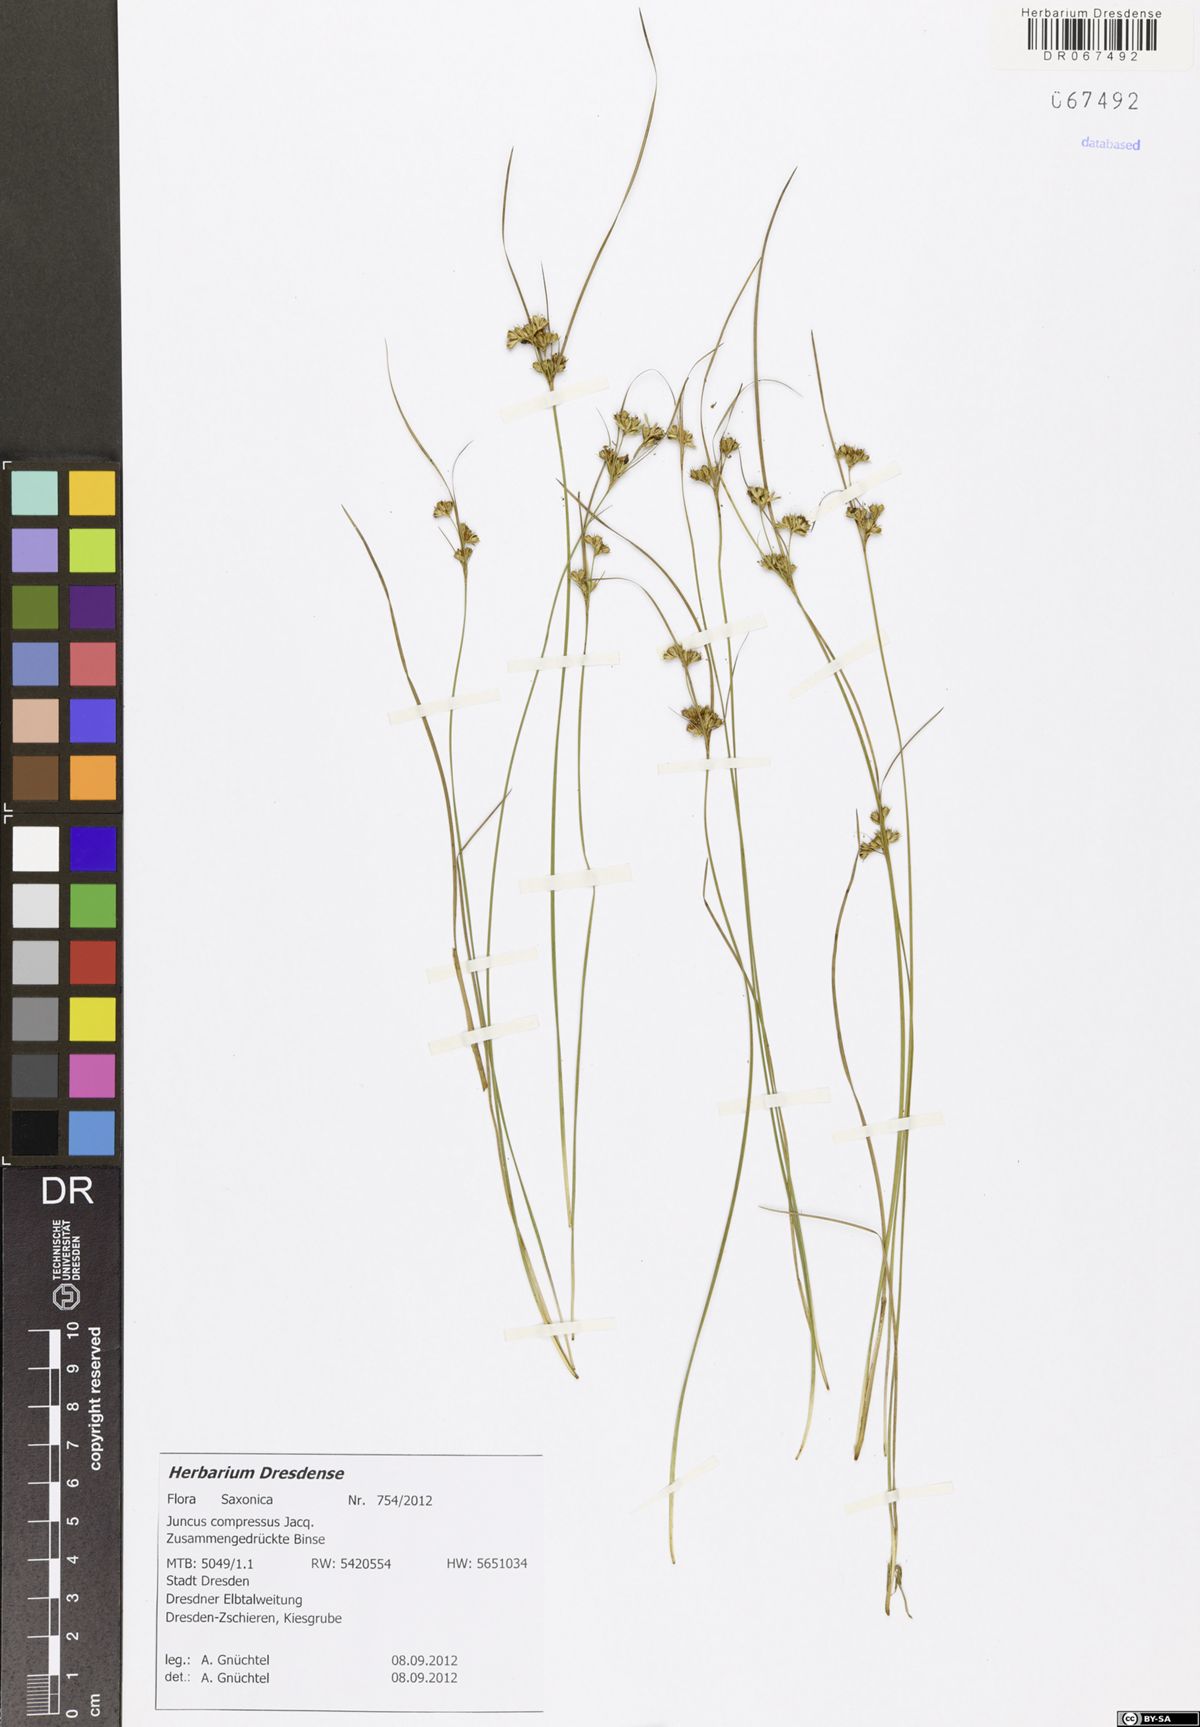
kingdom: Plantae
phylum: Tracheophyta
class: Liliopsida
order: Poales
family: Juncaceae
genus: Juncus
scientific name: Juncus compressus
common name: Round-fruited rush
